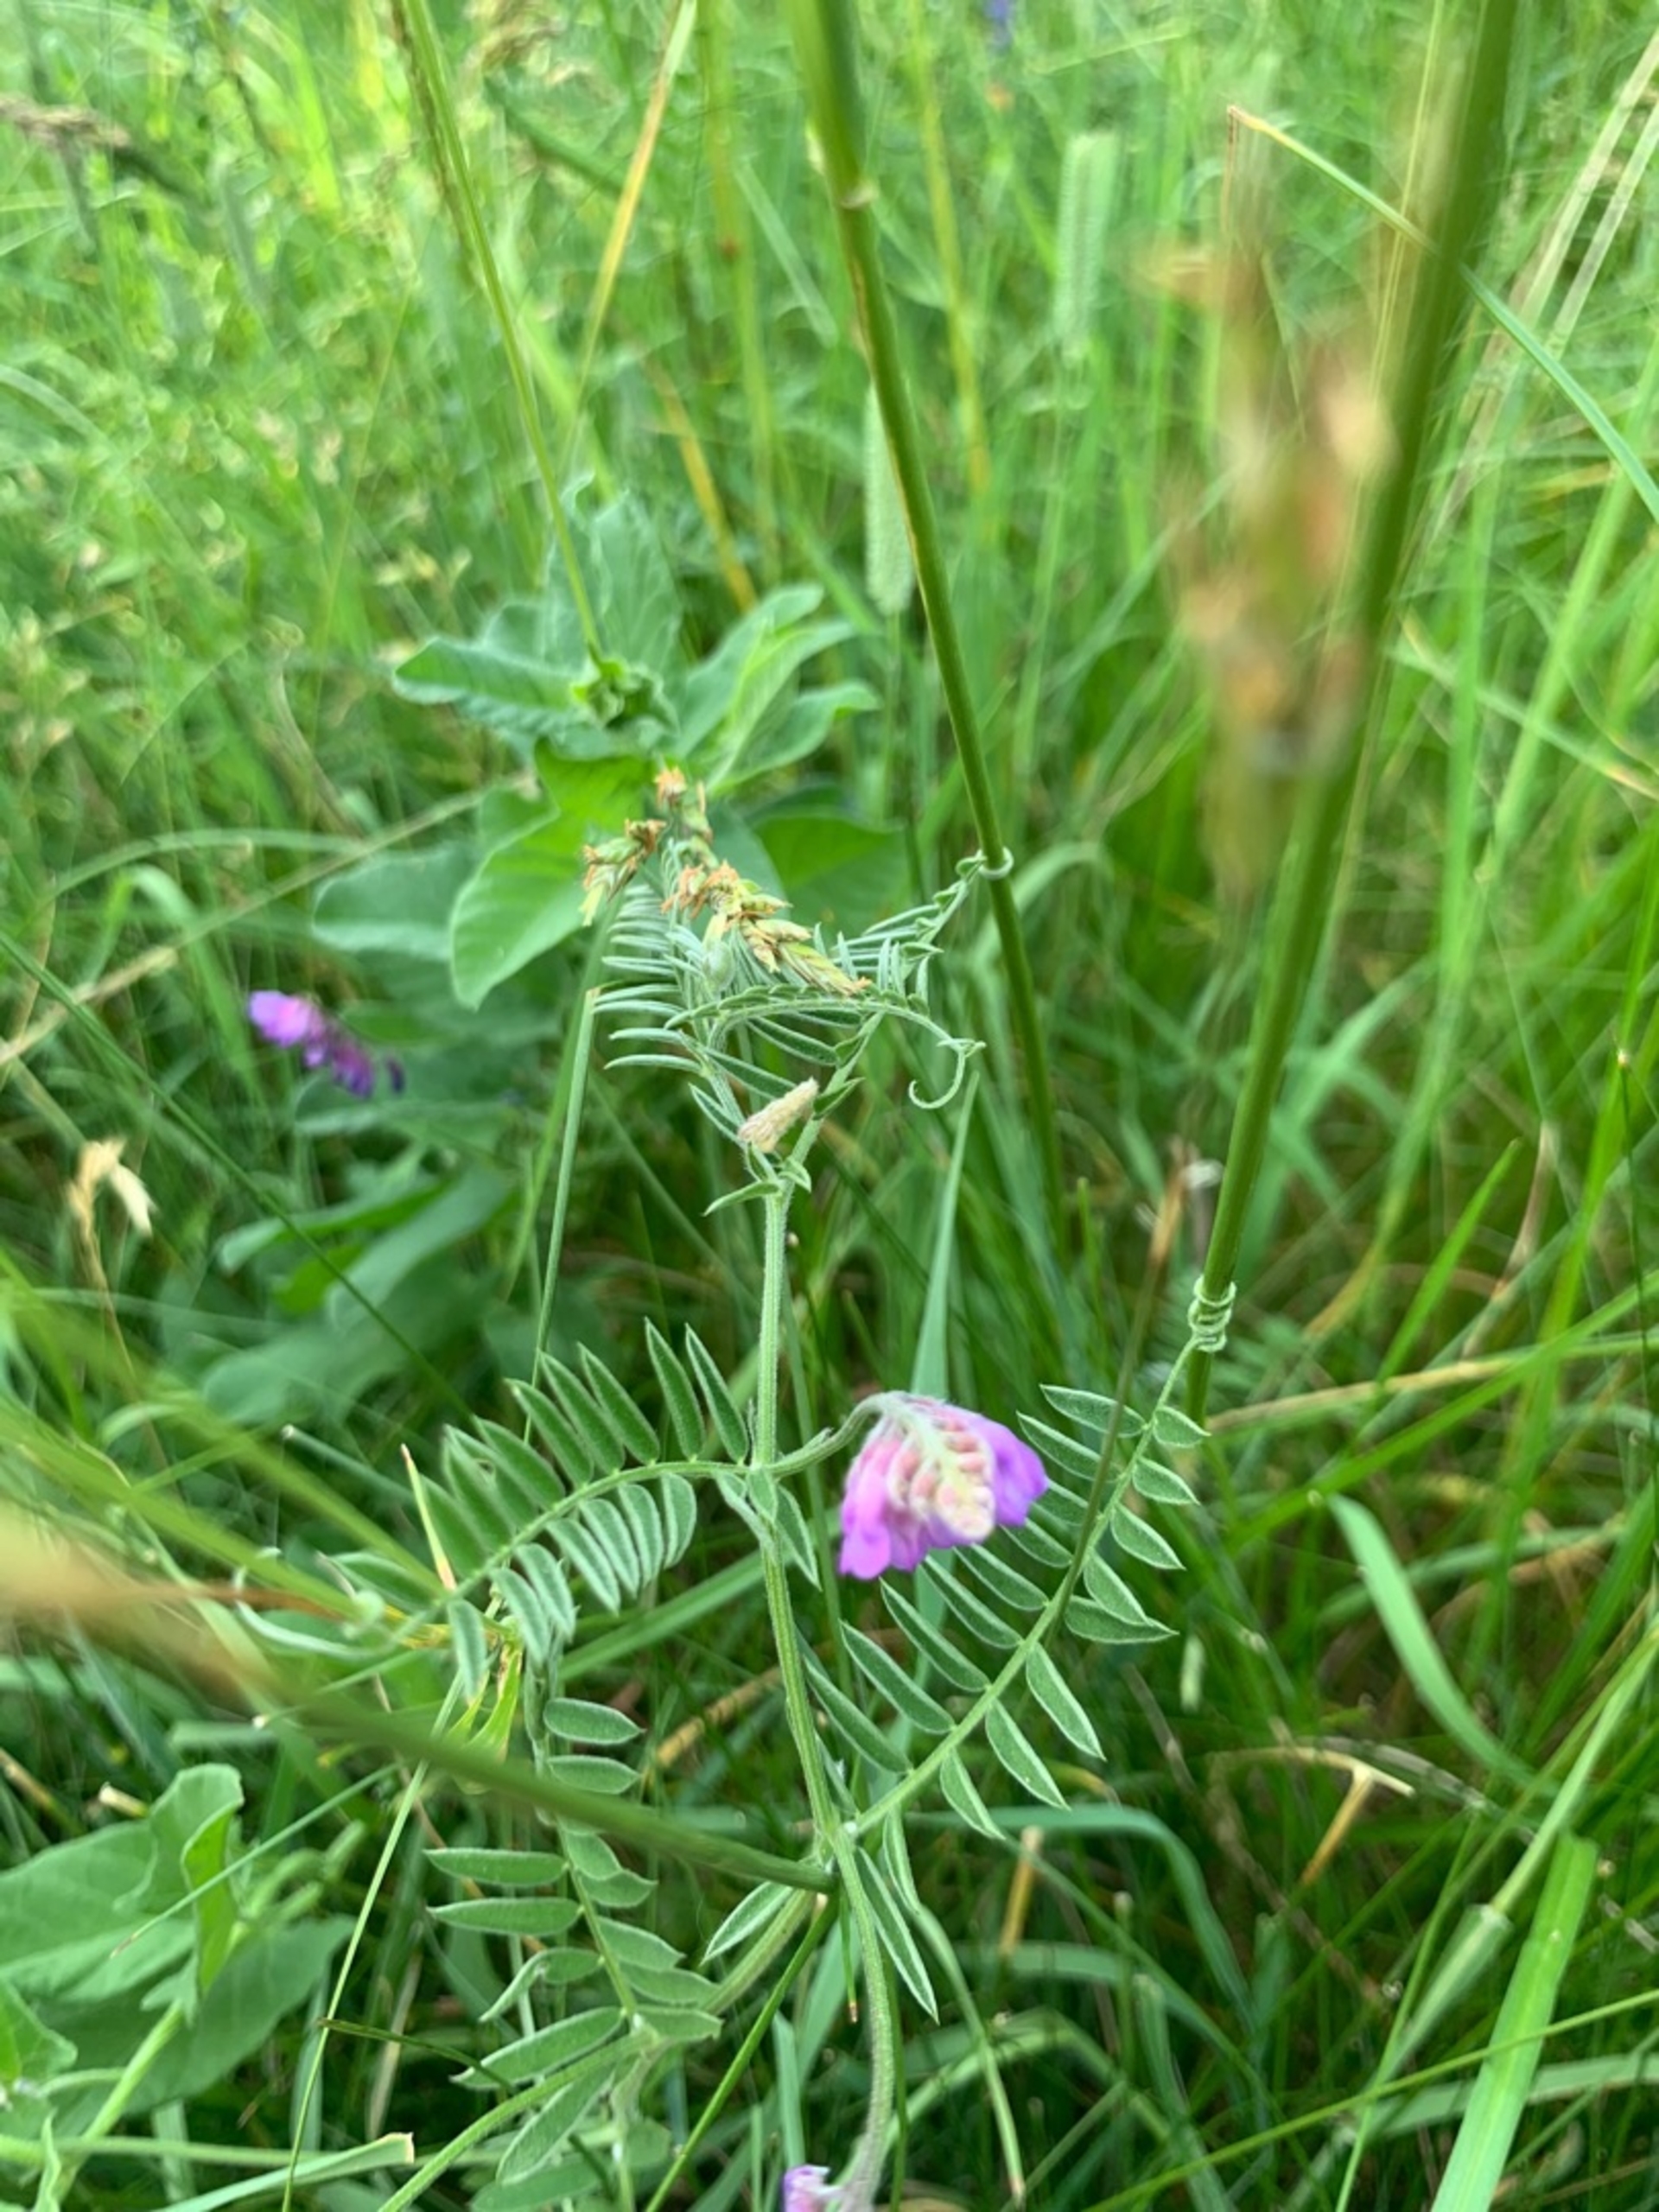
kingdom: Plantae
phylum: Tracheophyta
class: Magnoliopsida
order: Fabales
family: Fabaceae
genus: Vicia
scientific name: Vicia cracca
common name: Muse-vikke
